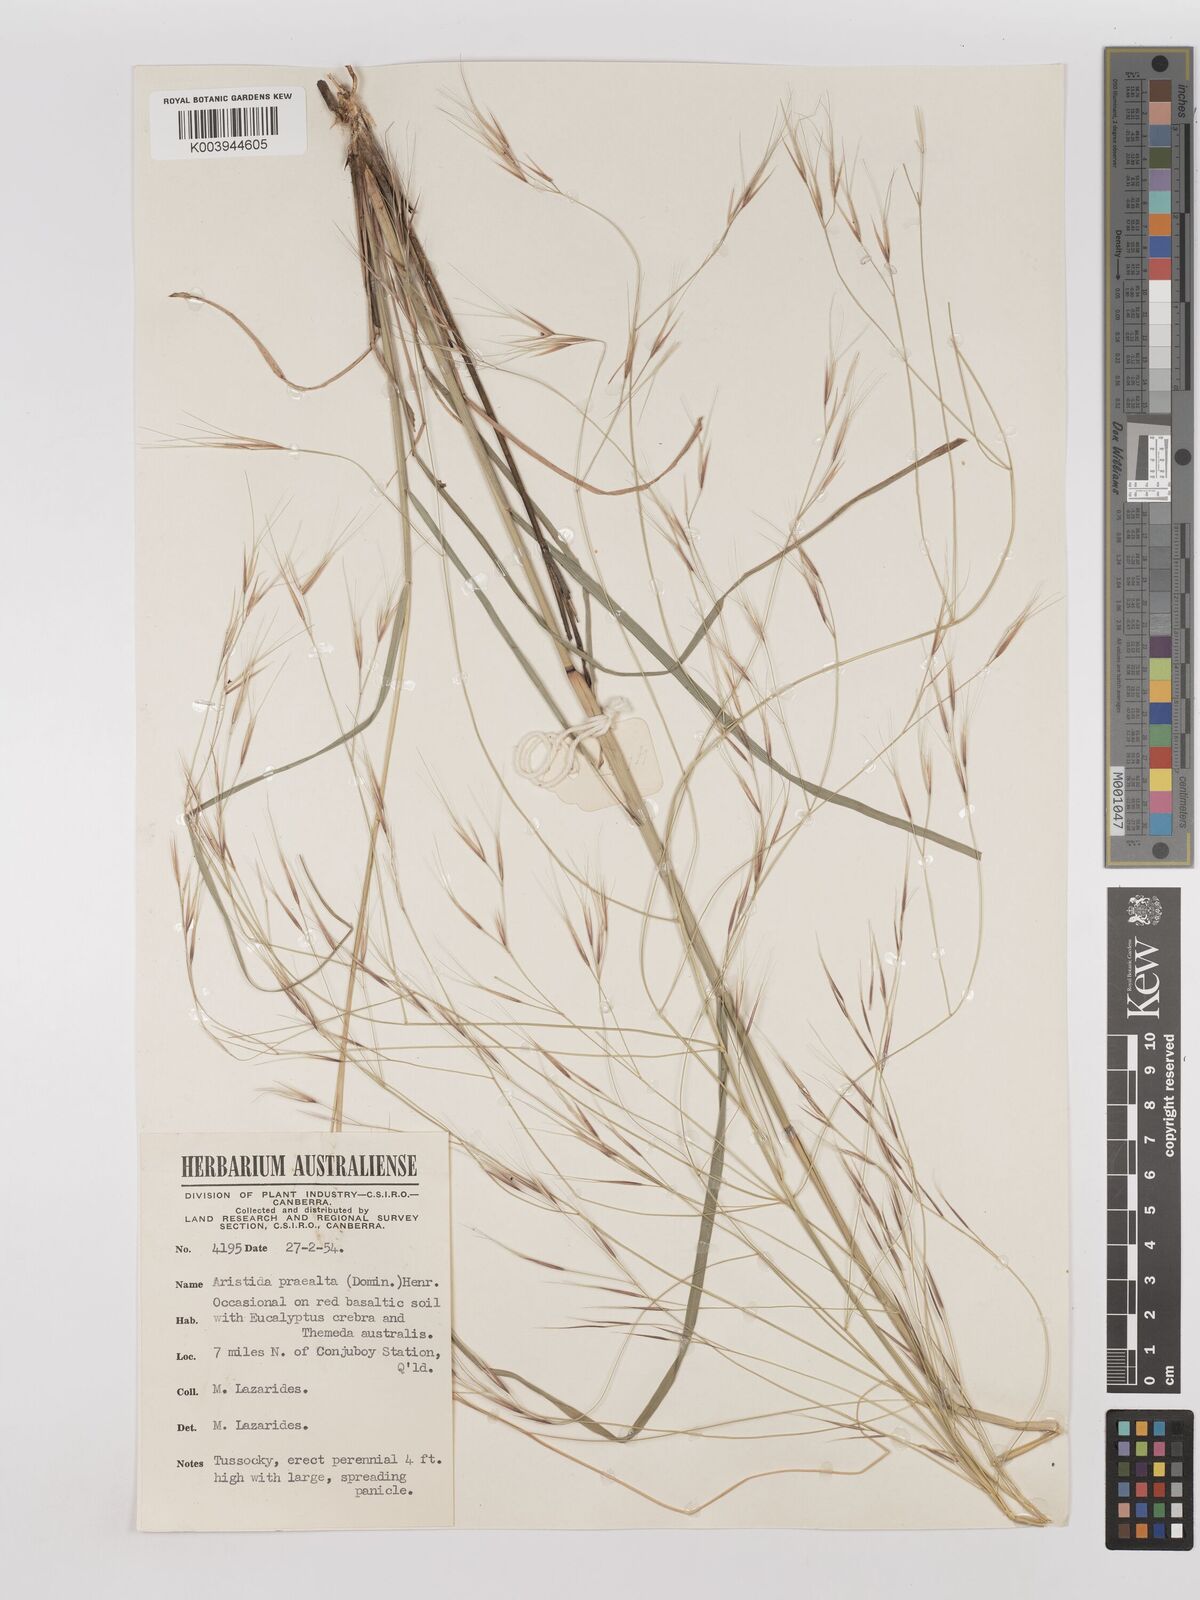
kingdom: Plantae
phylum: Tracheophyta
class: Liliopsida
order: Poales
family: Poaceae
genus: Aristida
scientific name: Aristida calycina
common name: Dark wire grass
